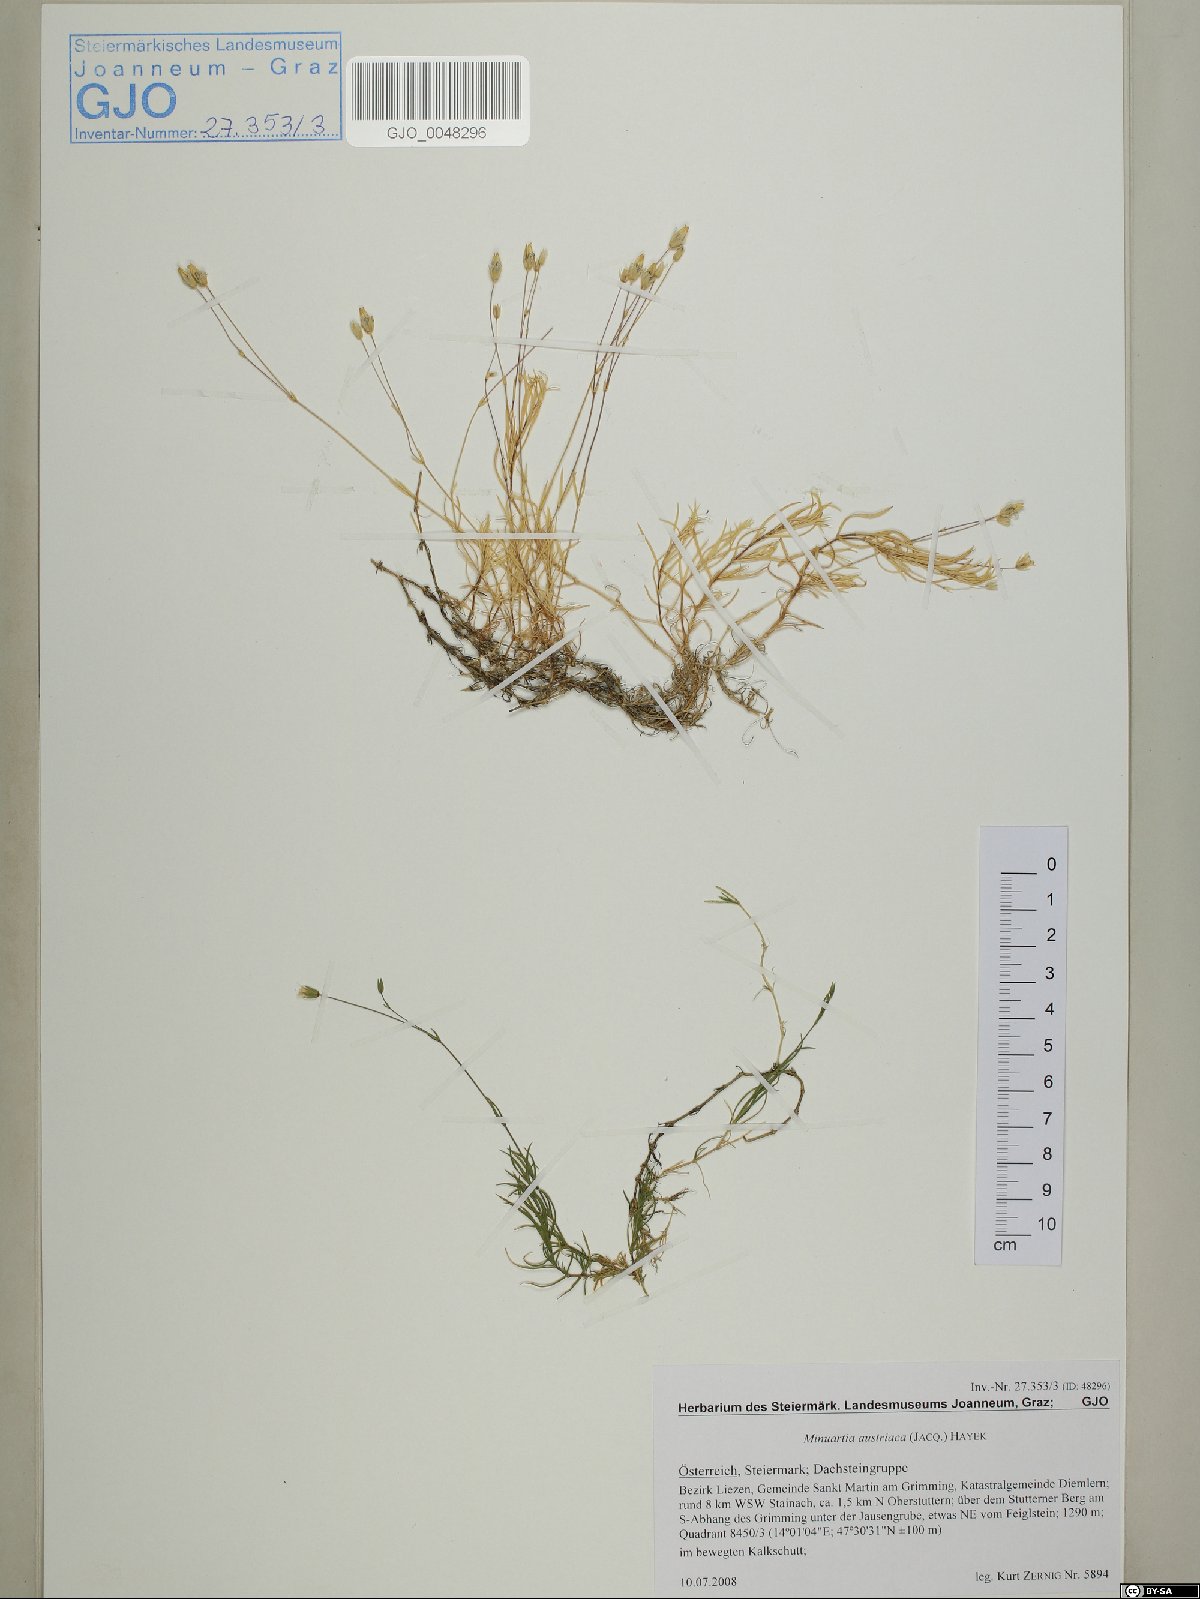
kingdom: Plantae
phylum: Tracheophyta
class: Magnoliopsida
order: Caryophyllales
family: Caryophyllaceae
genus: Sabulina
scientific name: Sabulina austriaca
